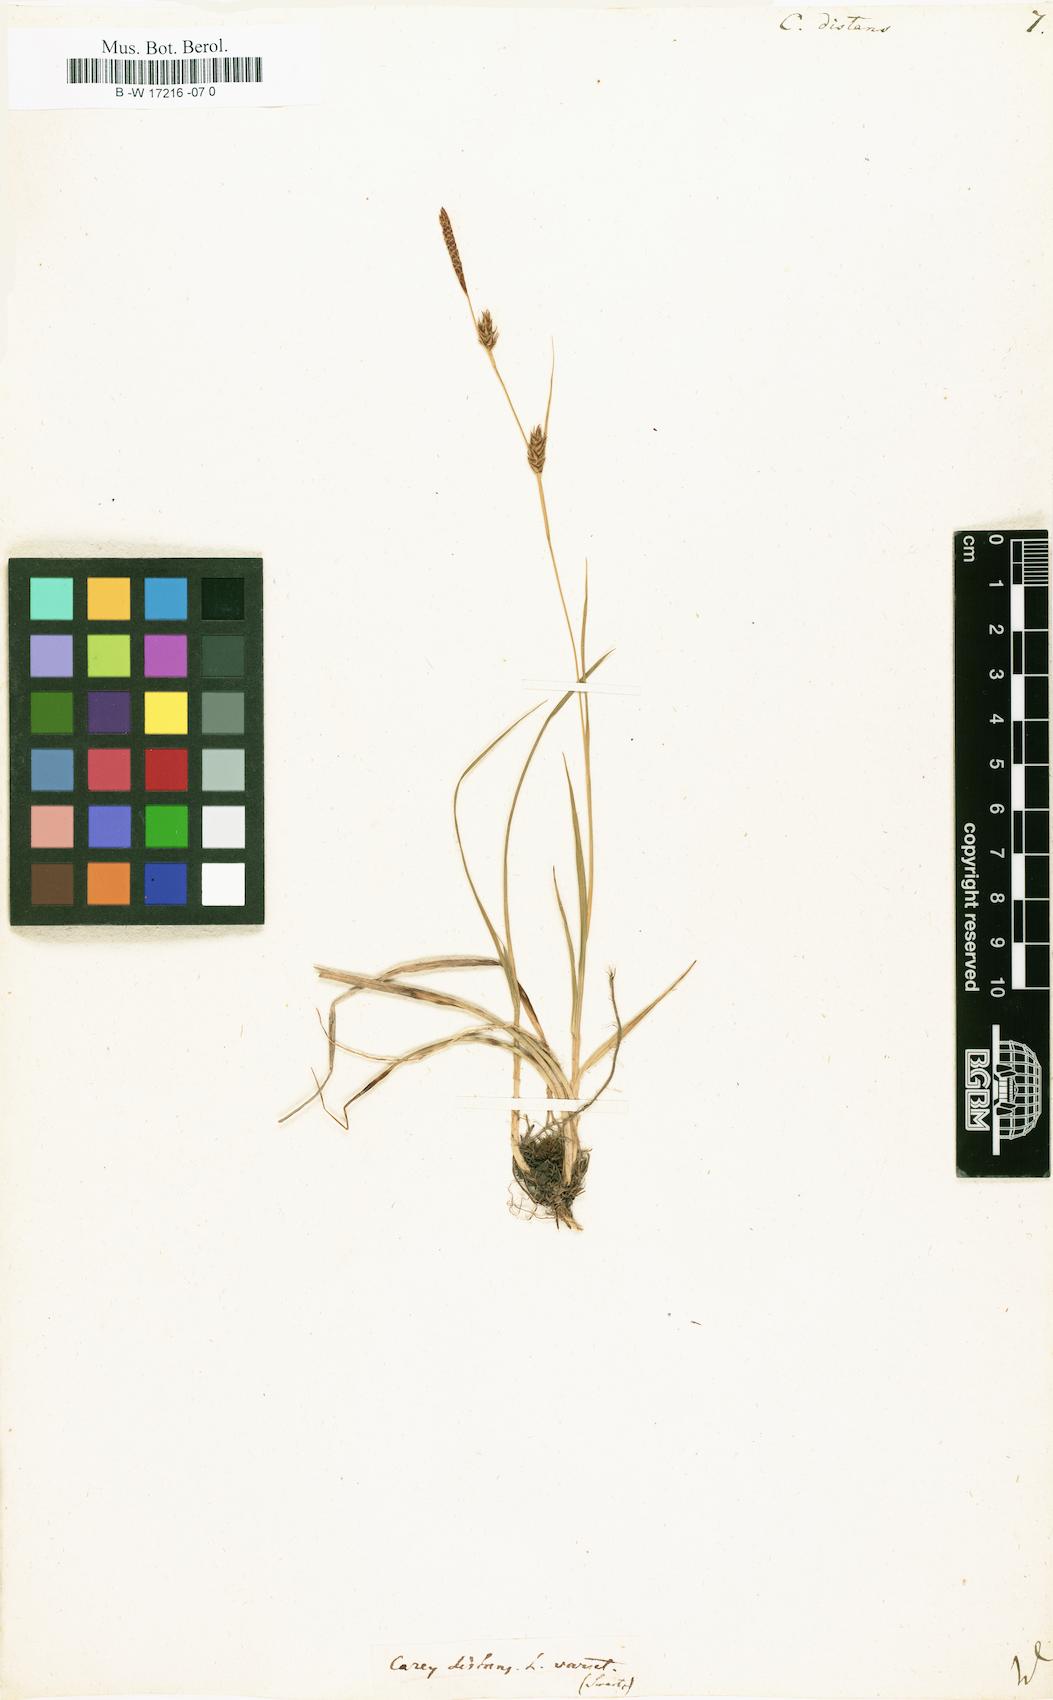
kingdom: Plantae
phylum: Tracheophyta
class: Liliopsida
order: Poales
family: Cyperaceae
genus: Carex
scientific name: Carex distans
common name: Distant sedge
